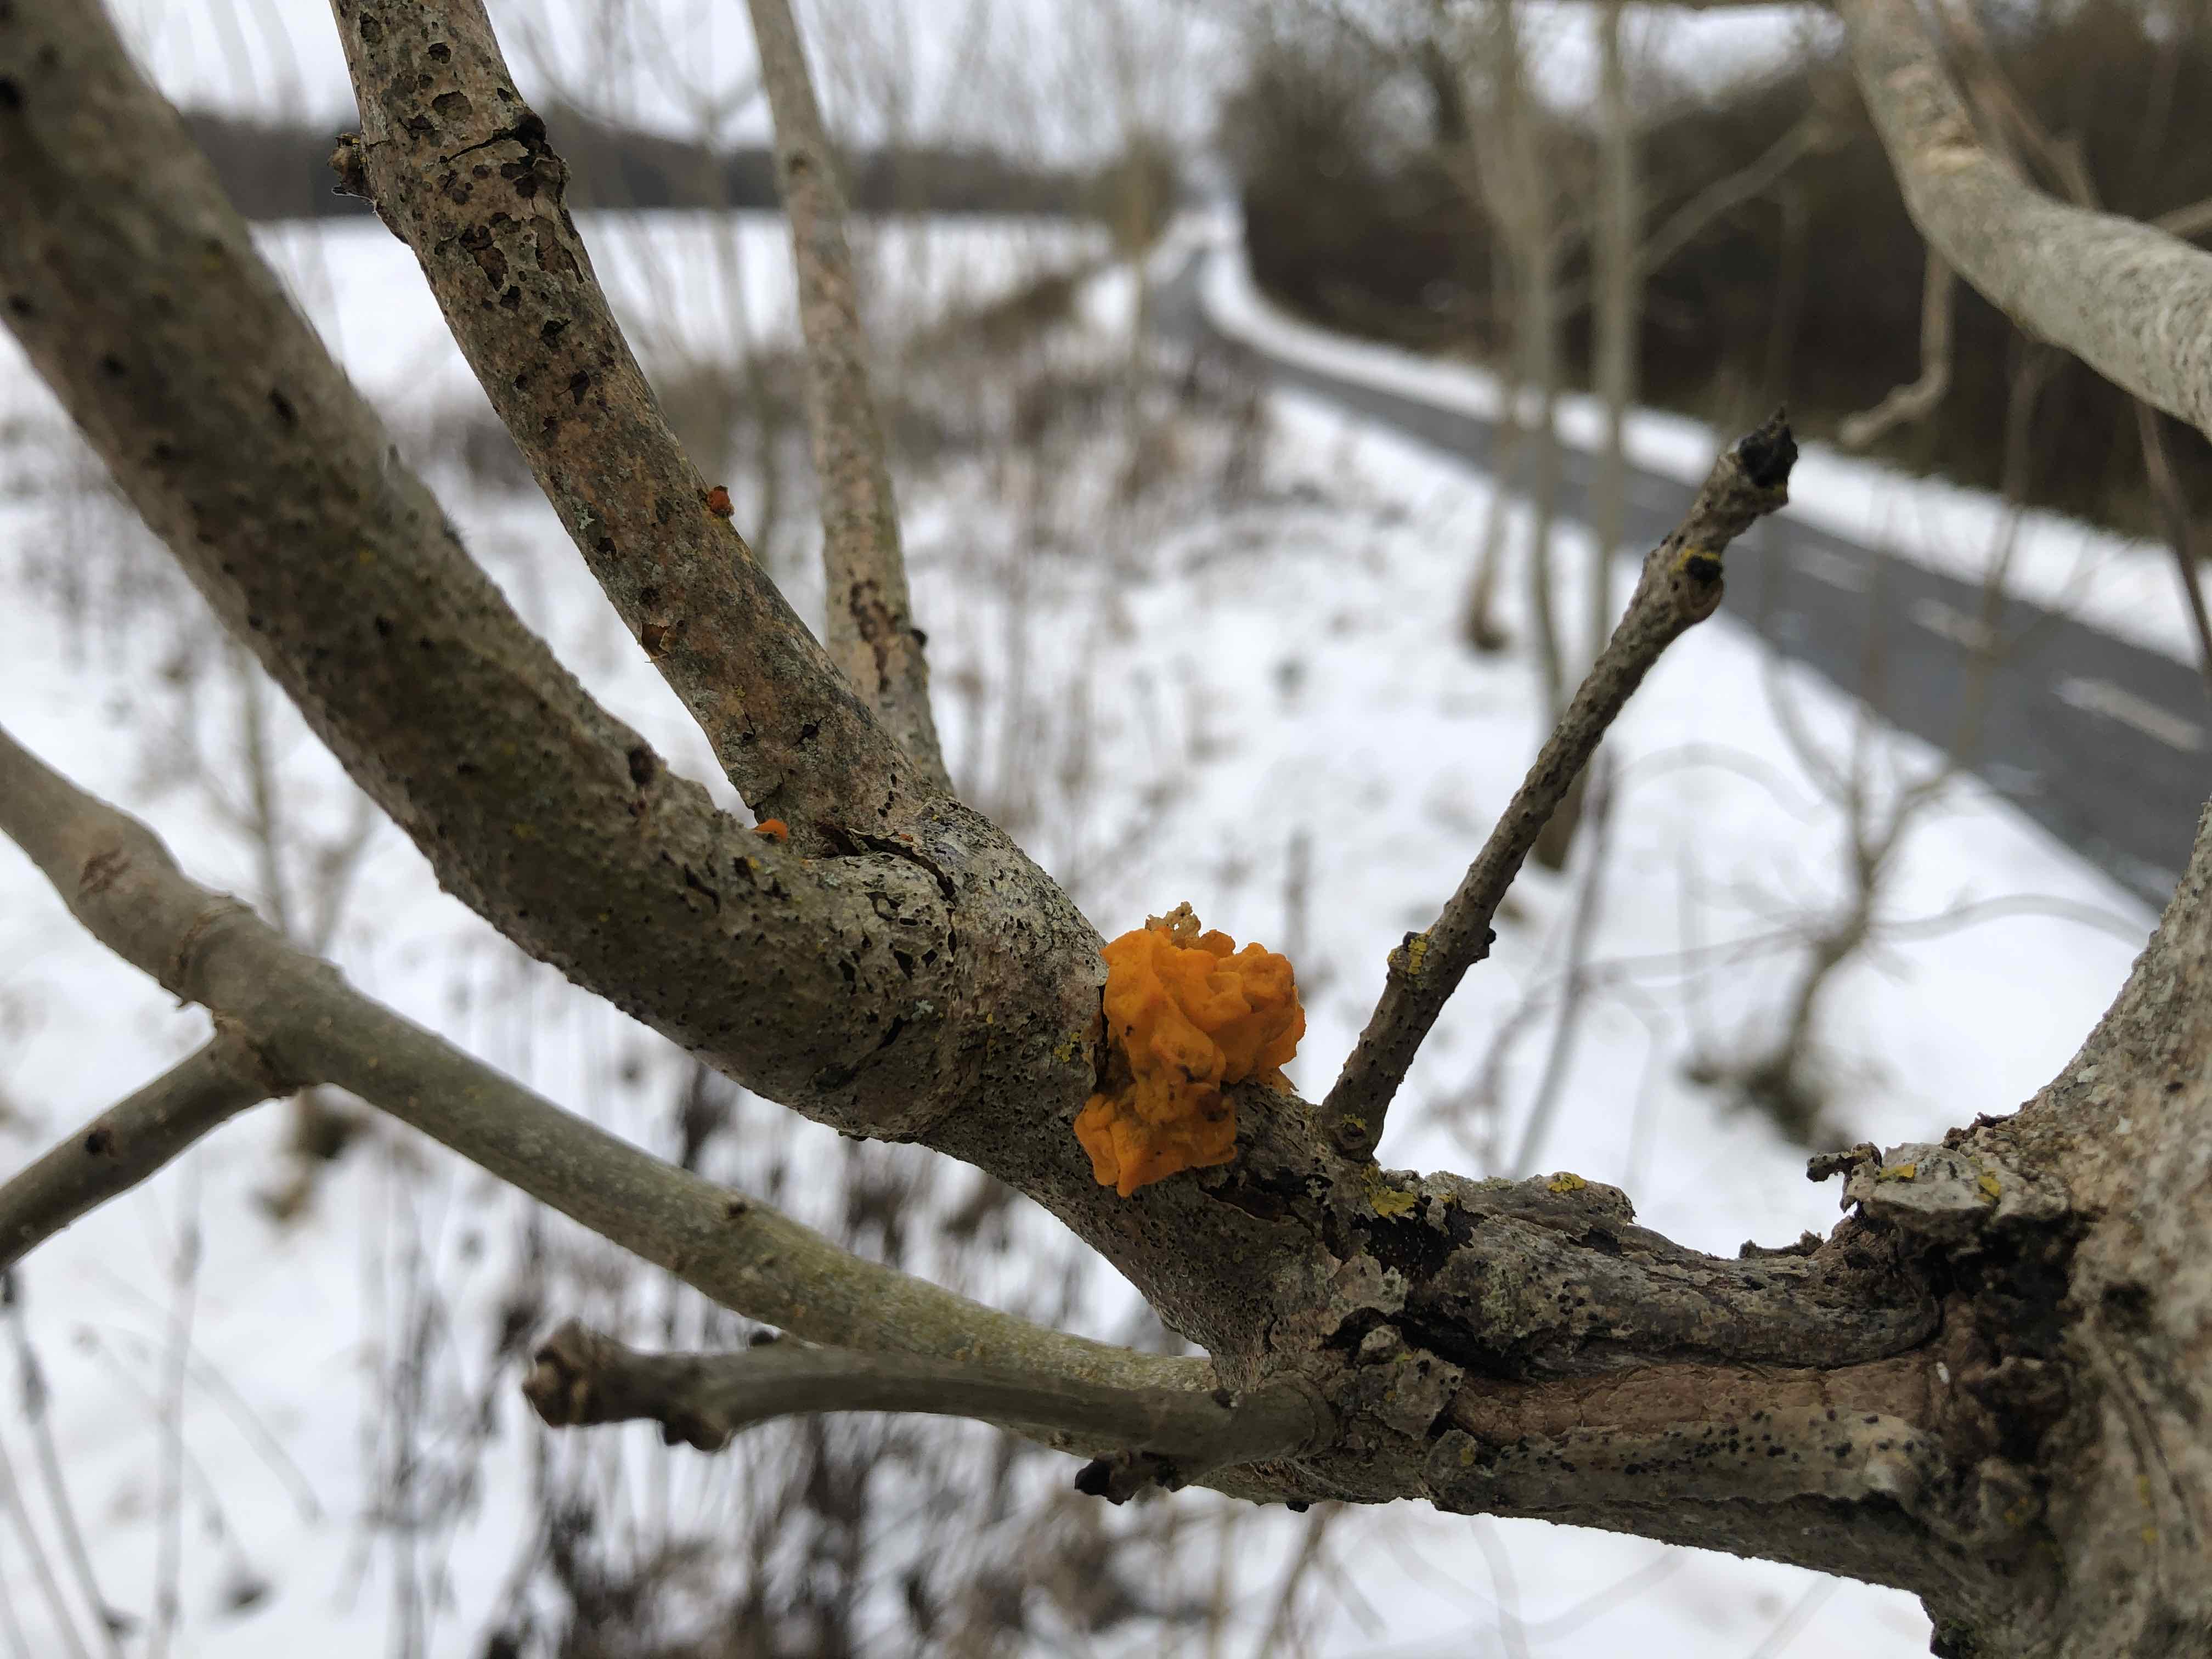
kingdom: Fungi
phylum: Basidiomycota
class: Tremellomycetes
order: Tremellales
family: Tremellaceae
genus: Tremella
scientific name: Tremella mesenterica
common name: gul bævresvamp
